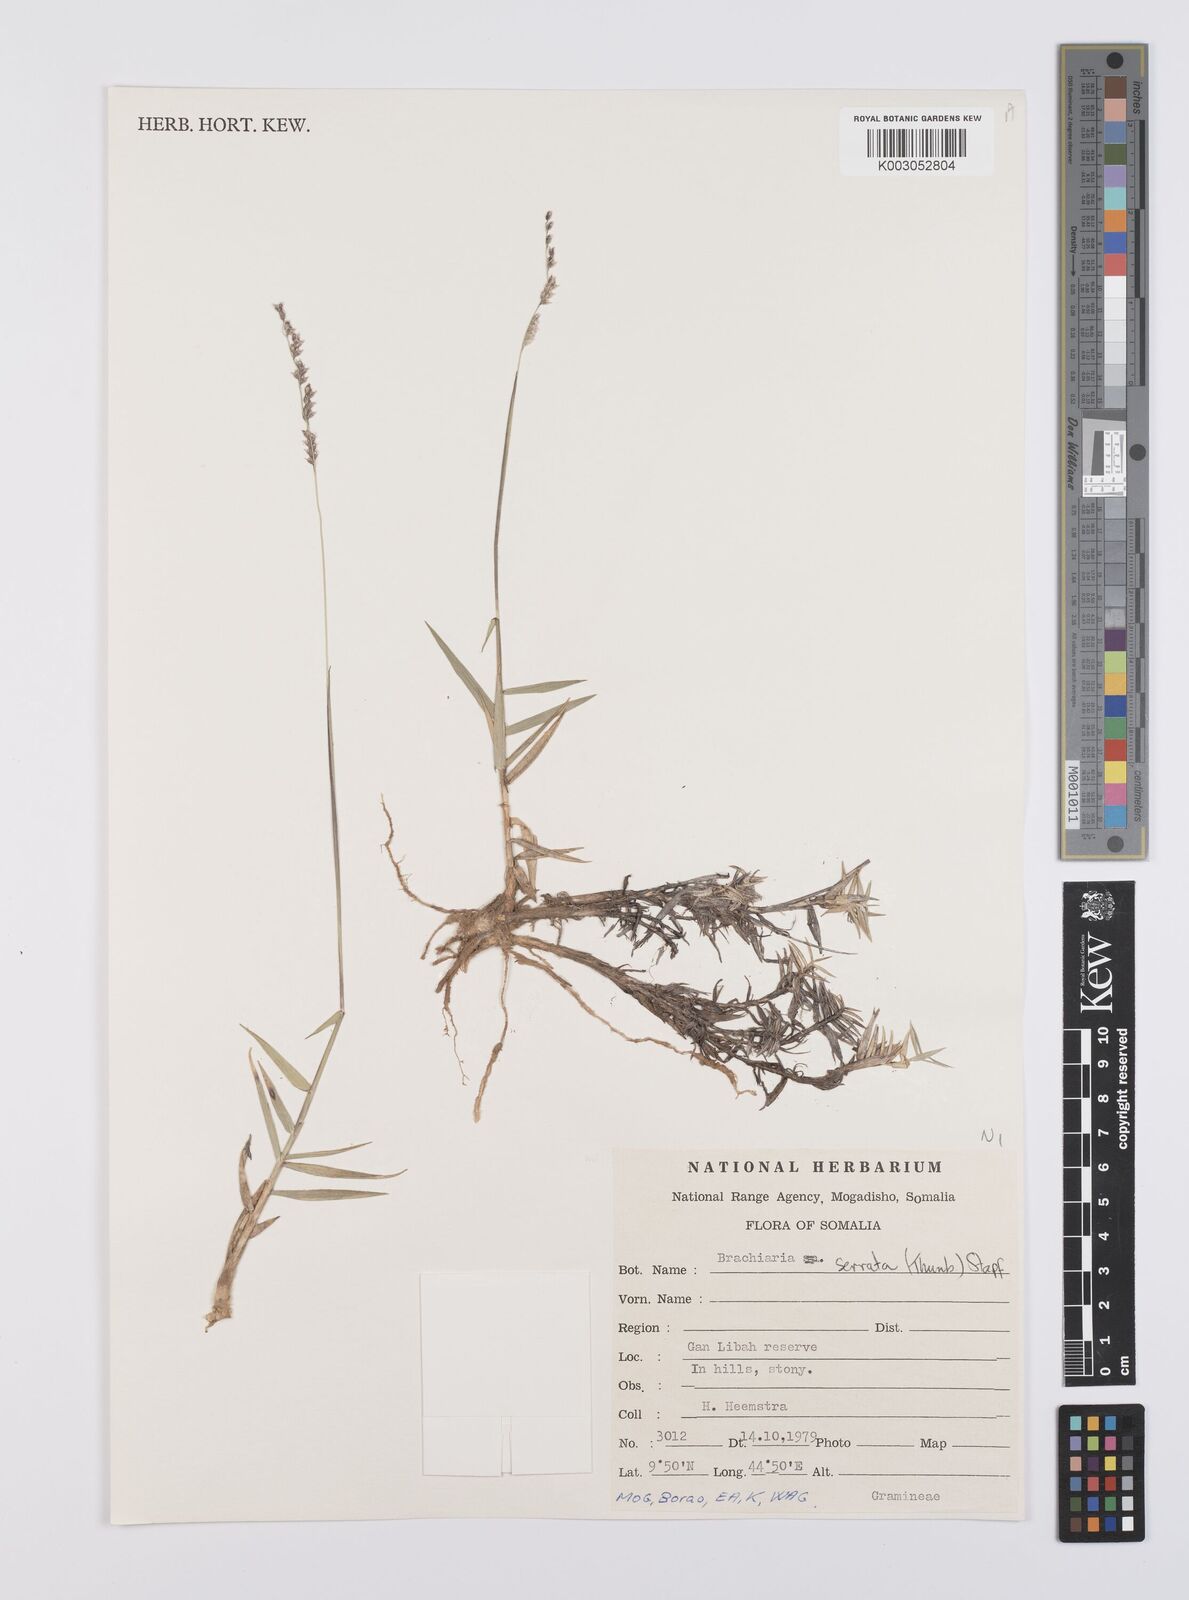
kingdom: Plantae
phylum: Tracheophyta
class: Liliopsida
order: Poales
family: Poaceae
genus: Urochloa
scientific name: Urochloa serrata
